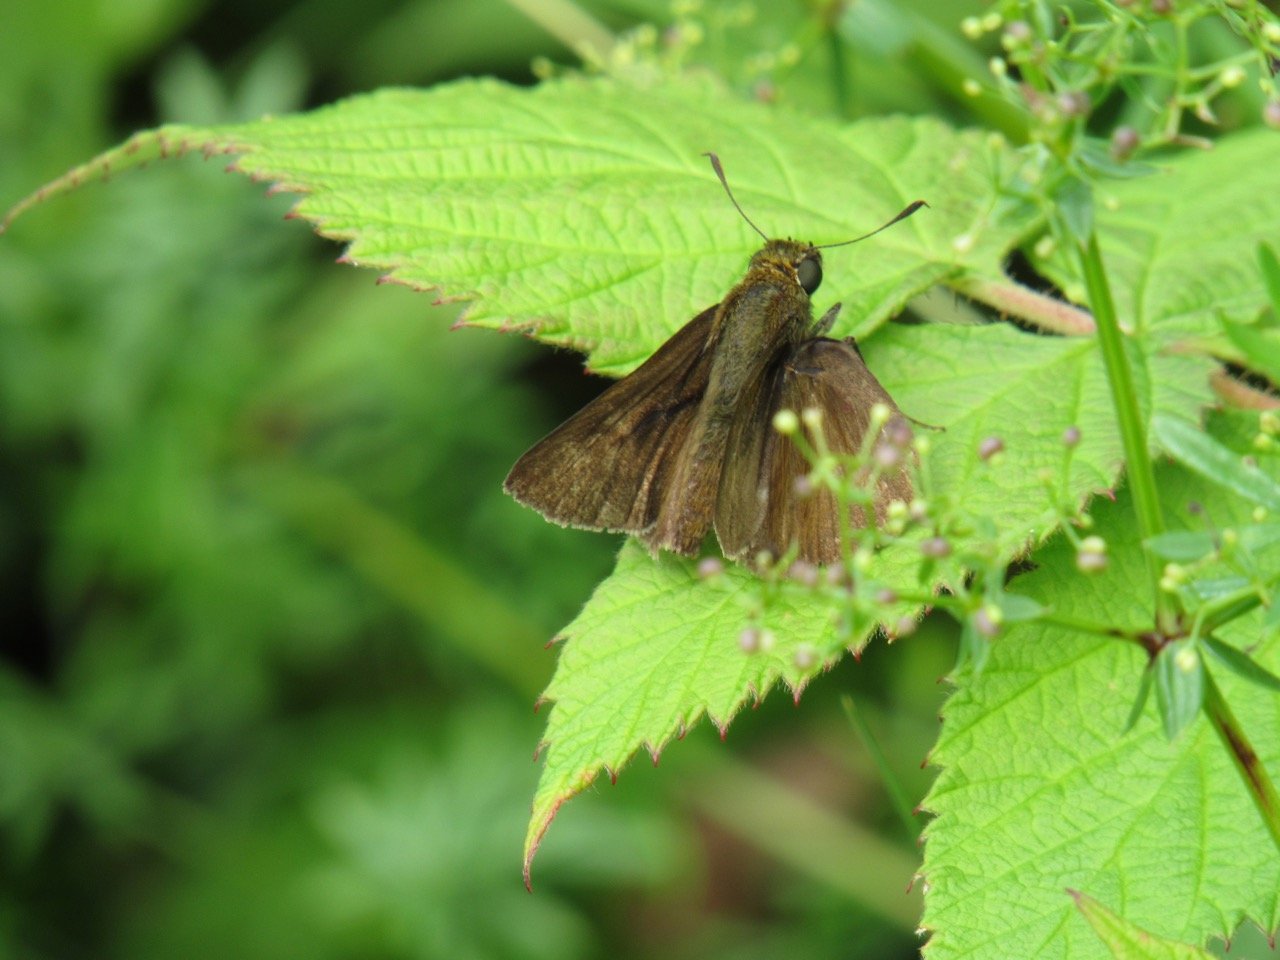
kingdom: Animalia
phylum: Arthropoda
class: Insecta
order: Lepidoptera
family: Hesperiidae
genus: Euphyes
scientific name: Euphyes vestris
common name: Dun Skipper
